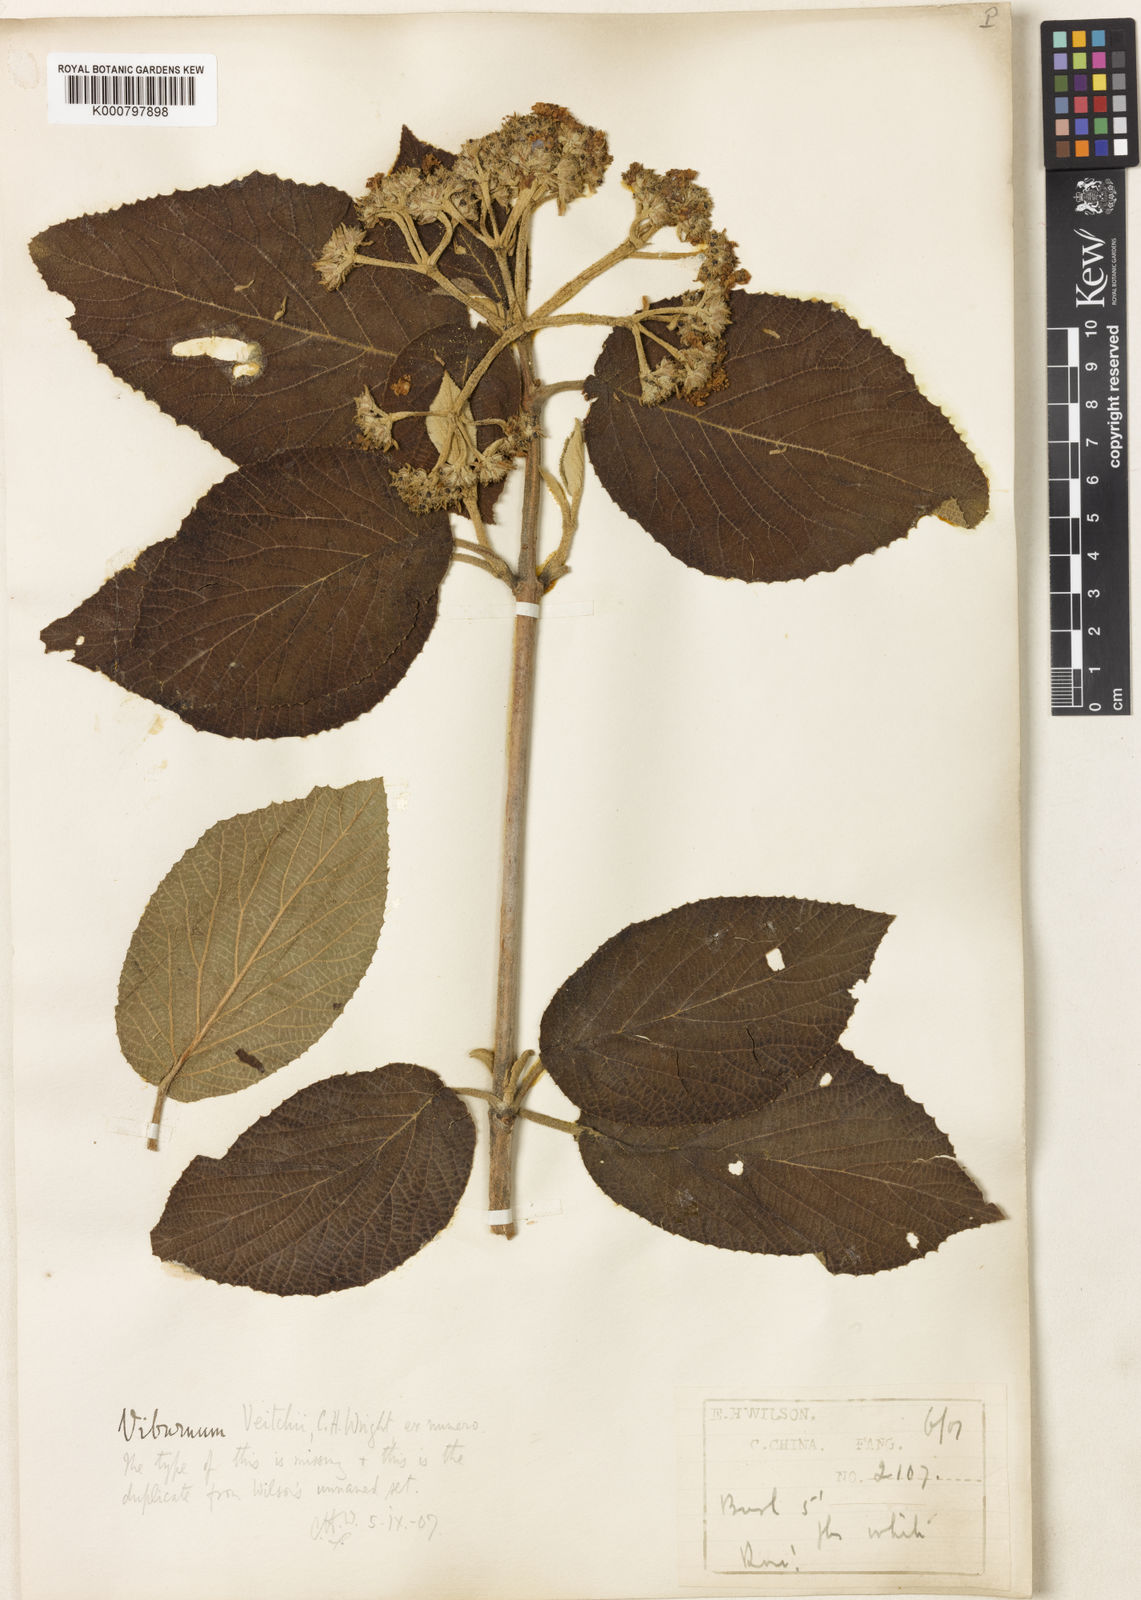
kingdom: Plantae
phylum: Tracheophyta
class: Magnoliopsida
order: Dipsacales
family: Viburnaceae
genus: Viburnum
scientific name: Viburnum glomeratum
